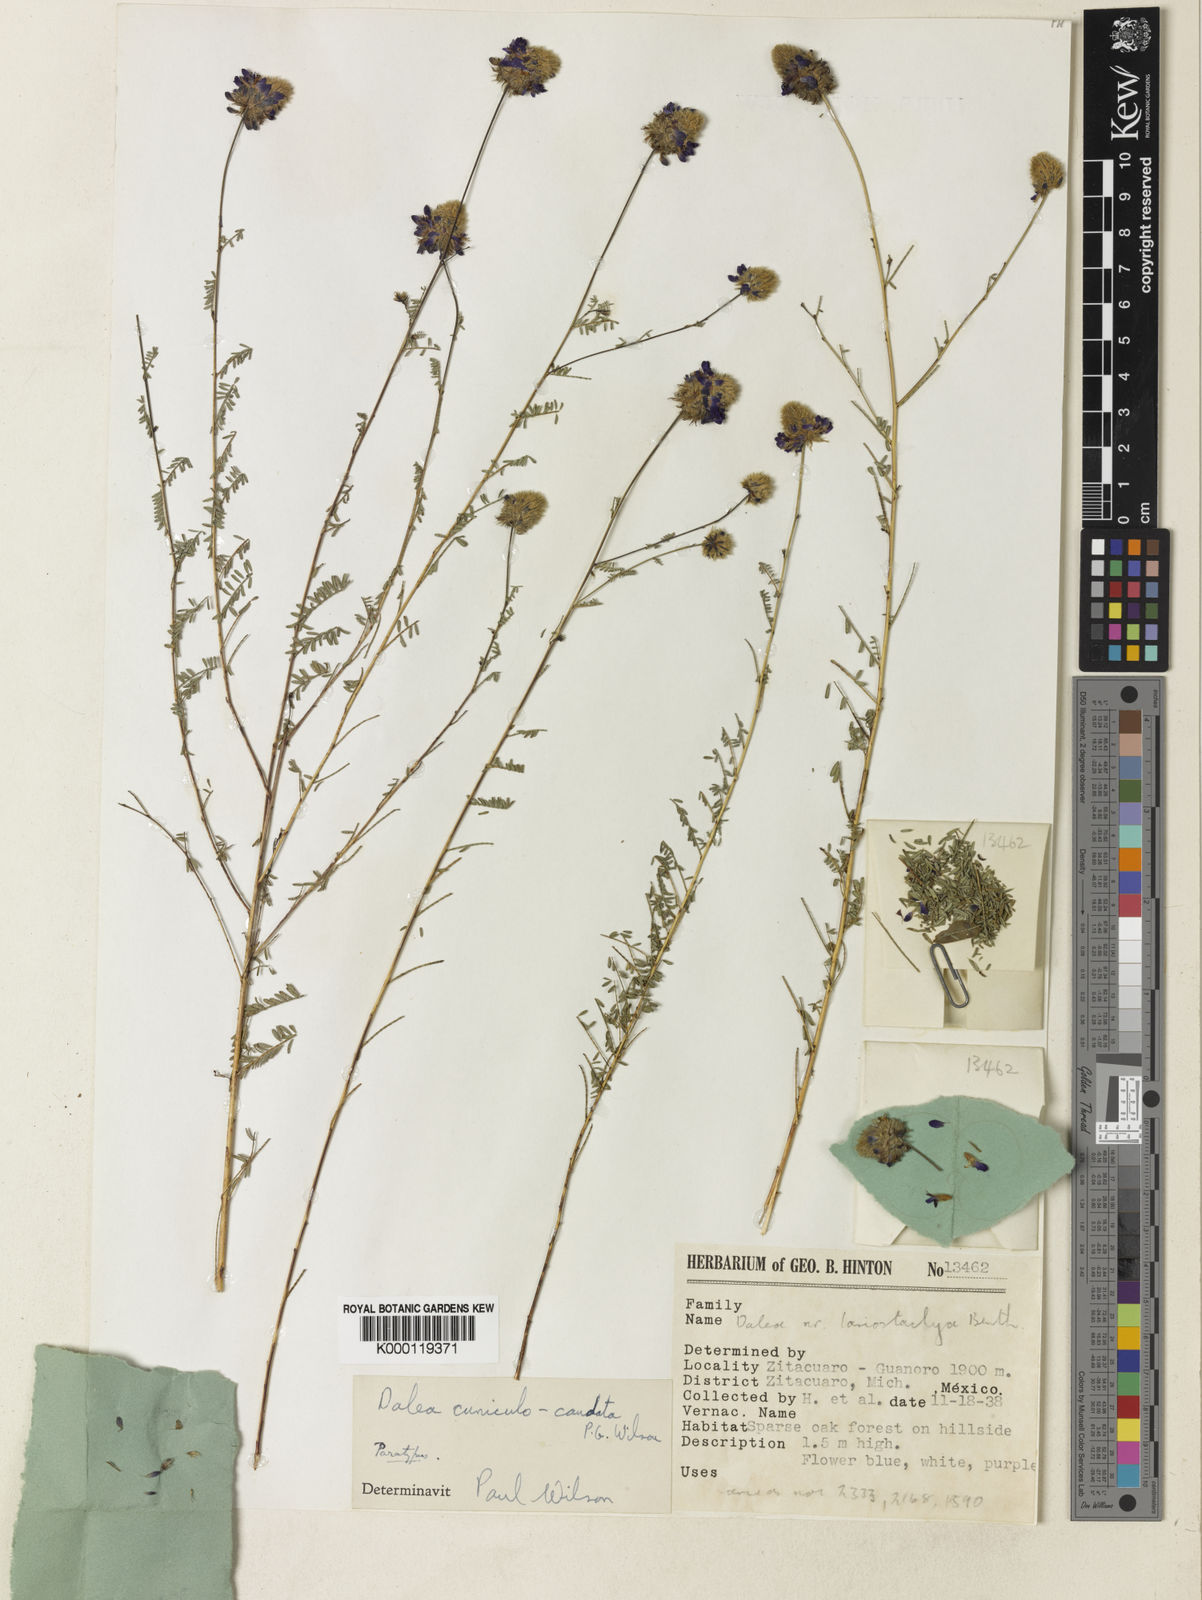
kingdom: Plantae
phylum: Tracheophyta
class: Magnoliopsida
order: Fabales
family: Fabaceae
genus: Dalea
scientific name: Dalea cuniculocaudata
